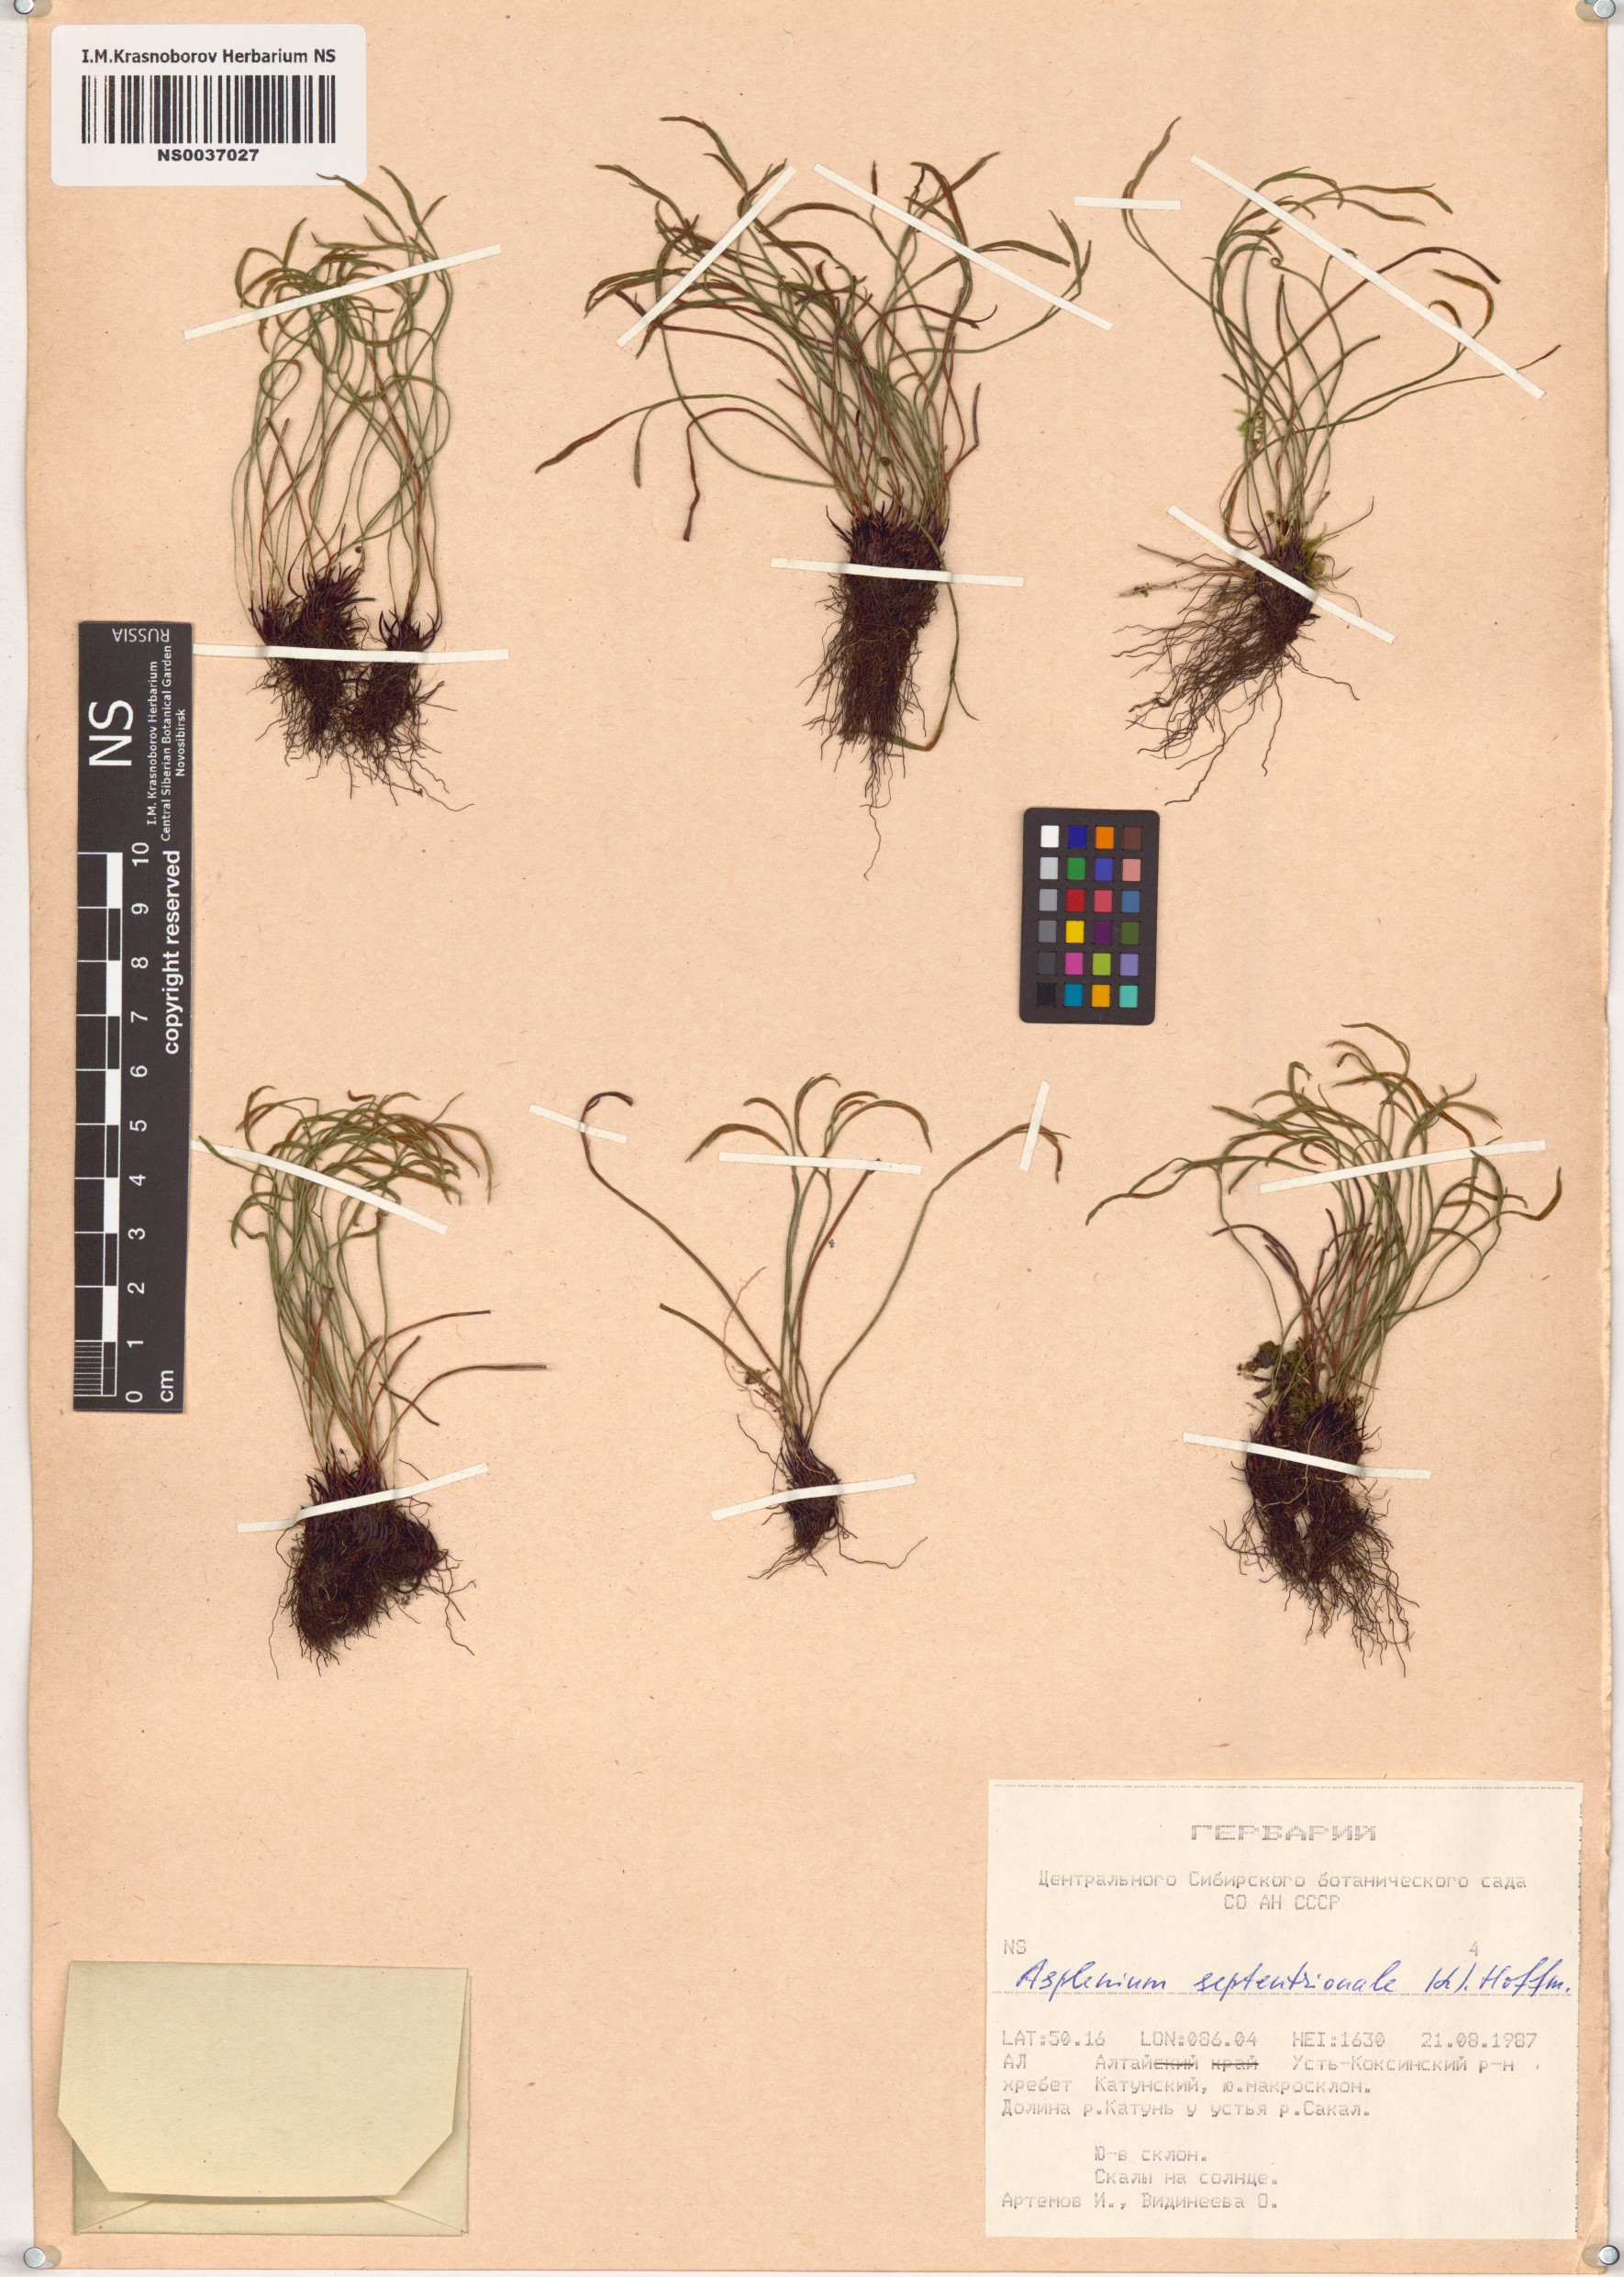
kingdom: Plantae
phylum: Tracheophyta
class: Polypodiopsida
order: Polypodiales
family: Aspleniaceae
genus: Asplenium
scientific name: Asplenium septentrionale
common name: Forked spleenwort
